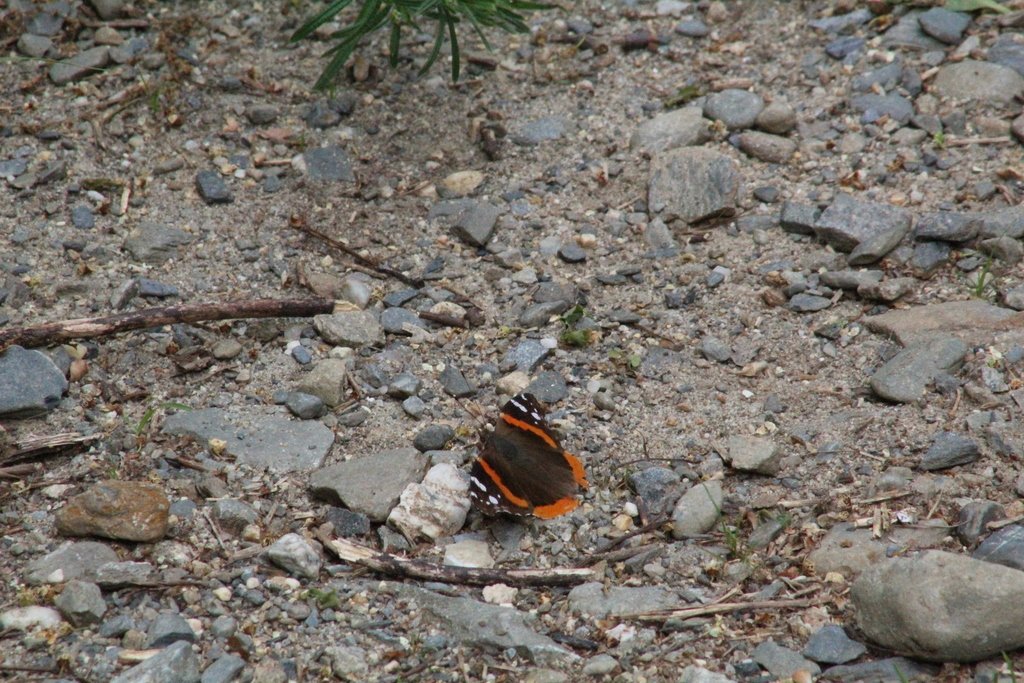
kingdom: Animalia
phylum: Arthropoda
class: Insecta
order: Lepidoptera
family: Nymphalidae
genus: Vanessa
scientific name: Vanessa atalanta
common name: Red Admiral
